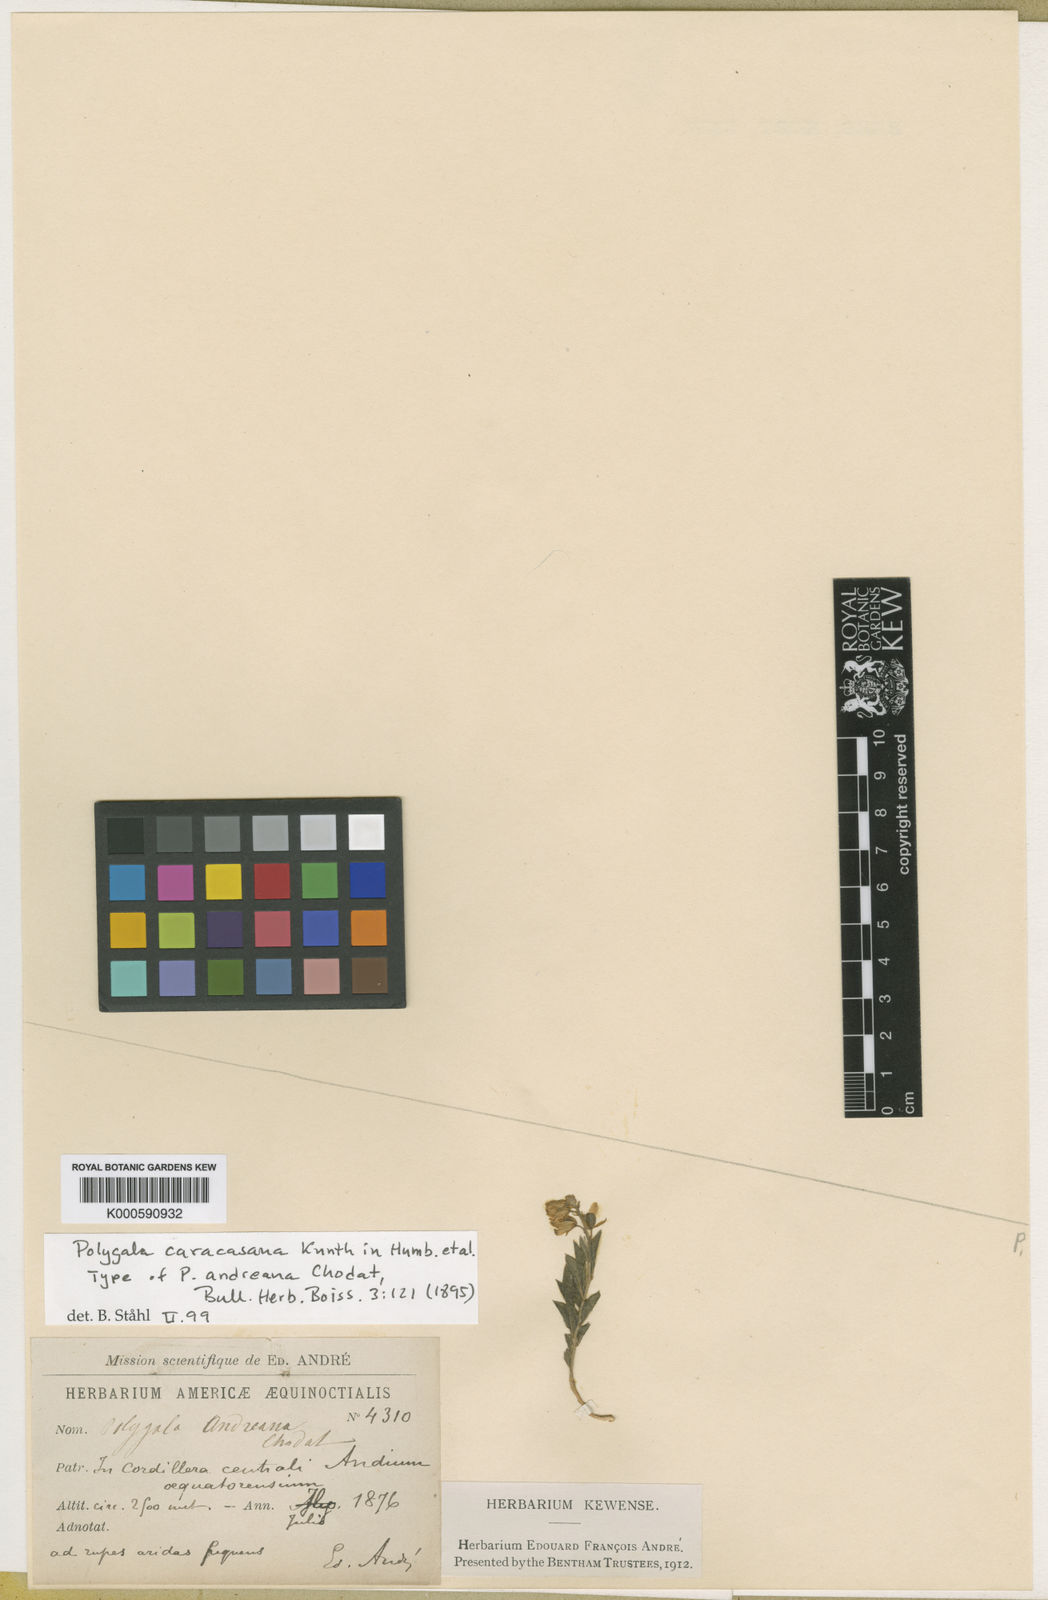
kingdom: Plantae
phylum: Tracheophyta
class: Magnoliopsida
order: Fabales
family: Polygalaceae
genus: Hebecarpa
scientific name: Hebecarpa caracasana
